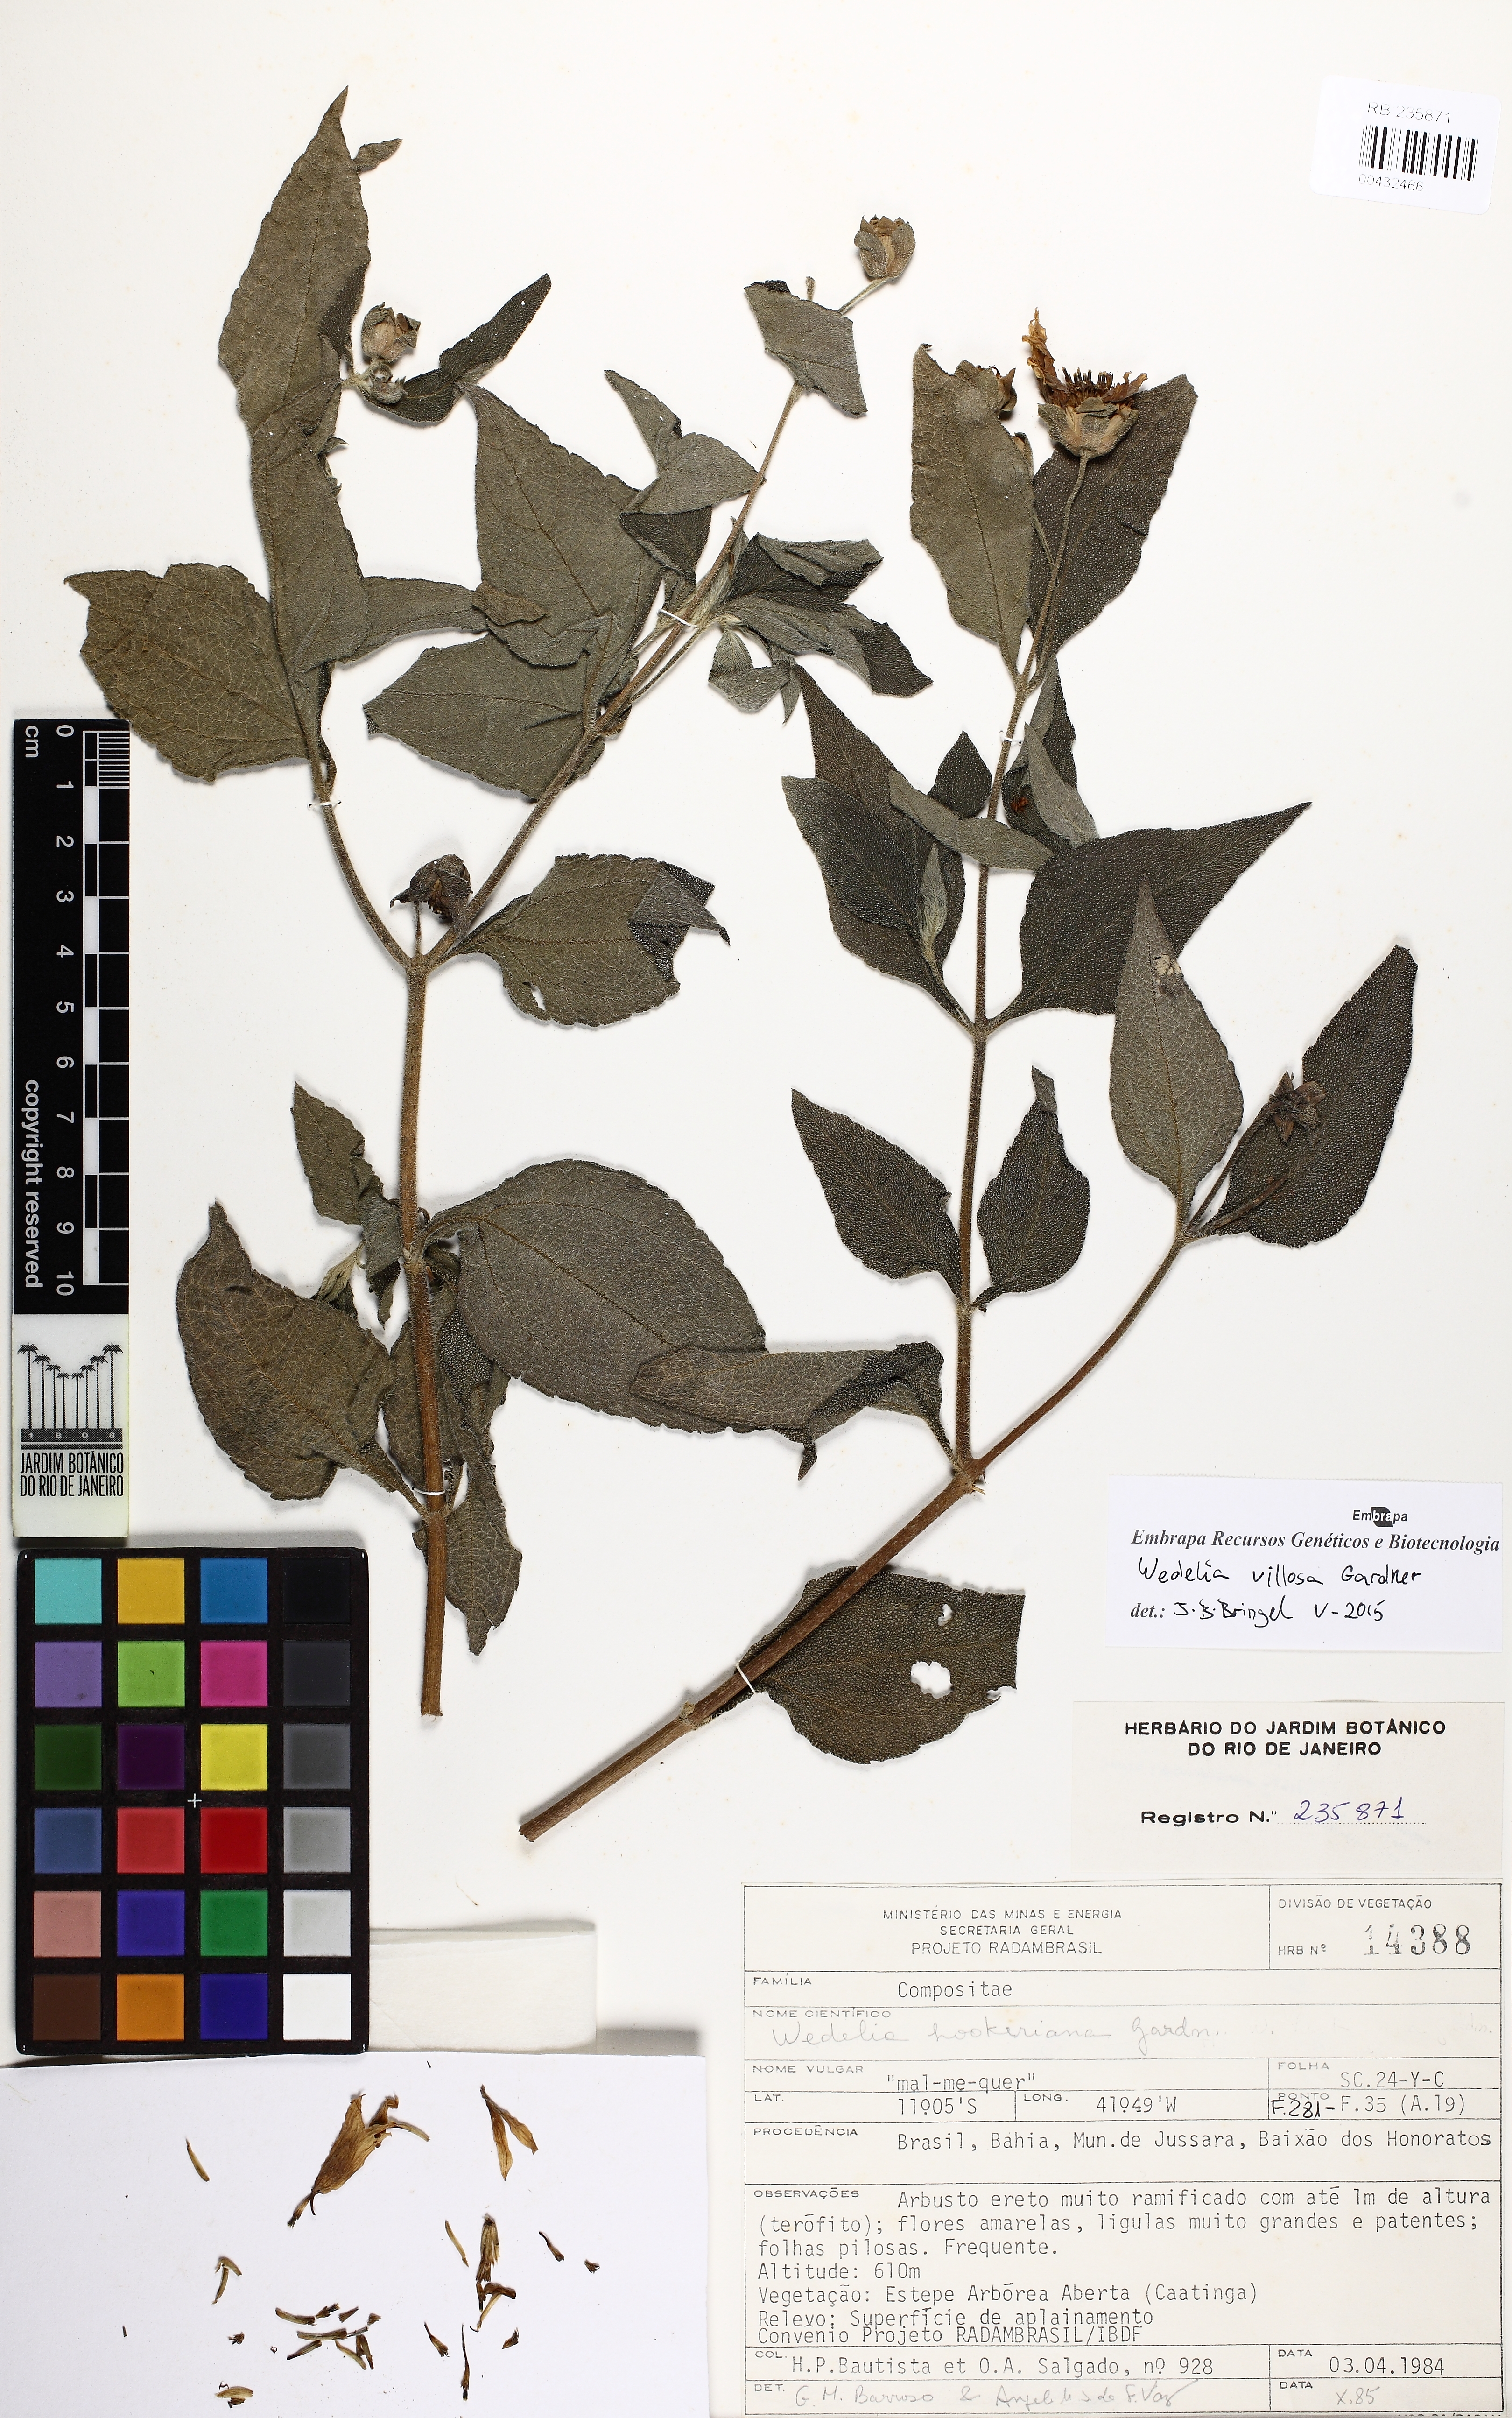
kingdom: Plantae
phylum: Tracheophyta
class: Magnoliopsida
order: Asterales
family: Asteraceae
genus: Wedelia
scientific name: Wedelia goyazensis
